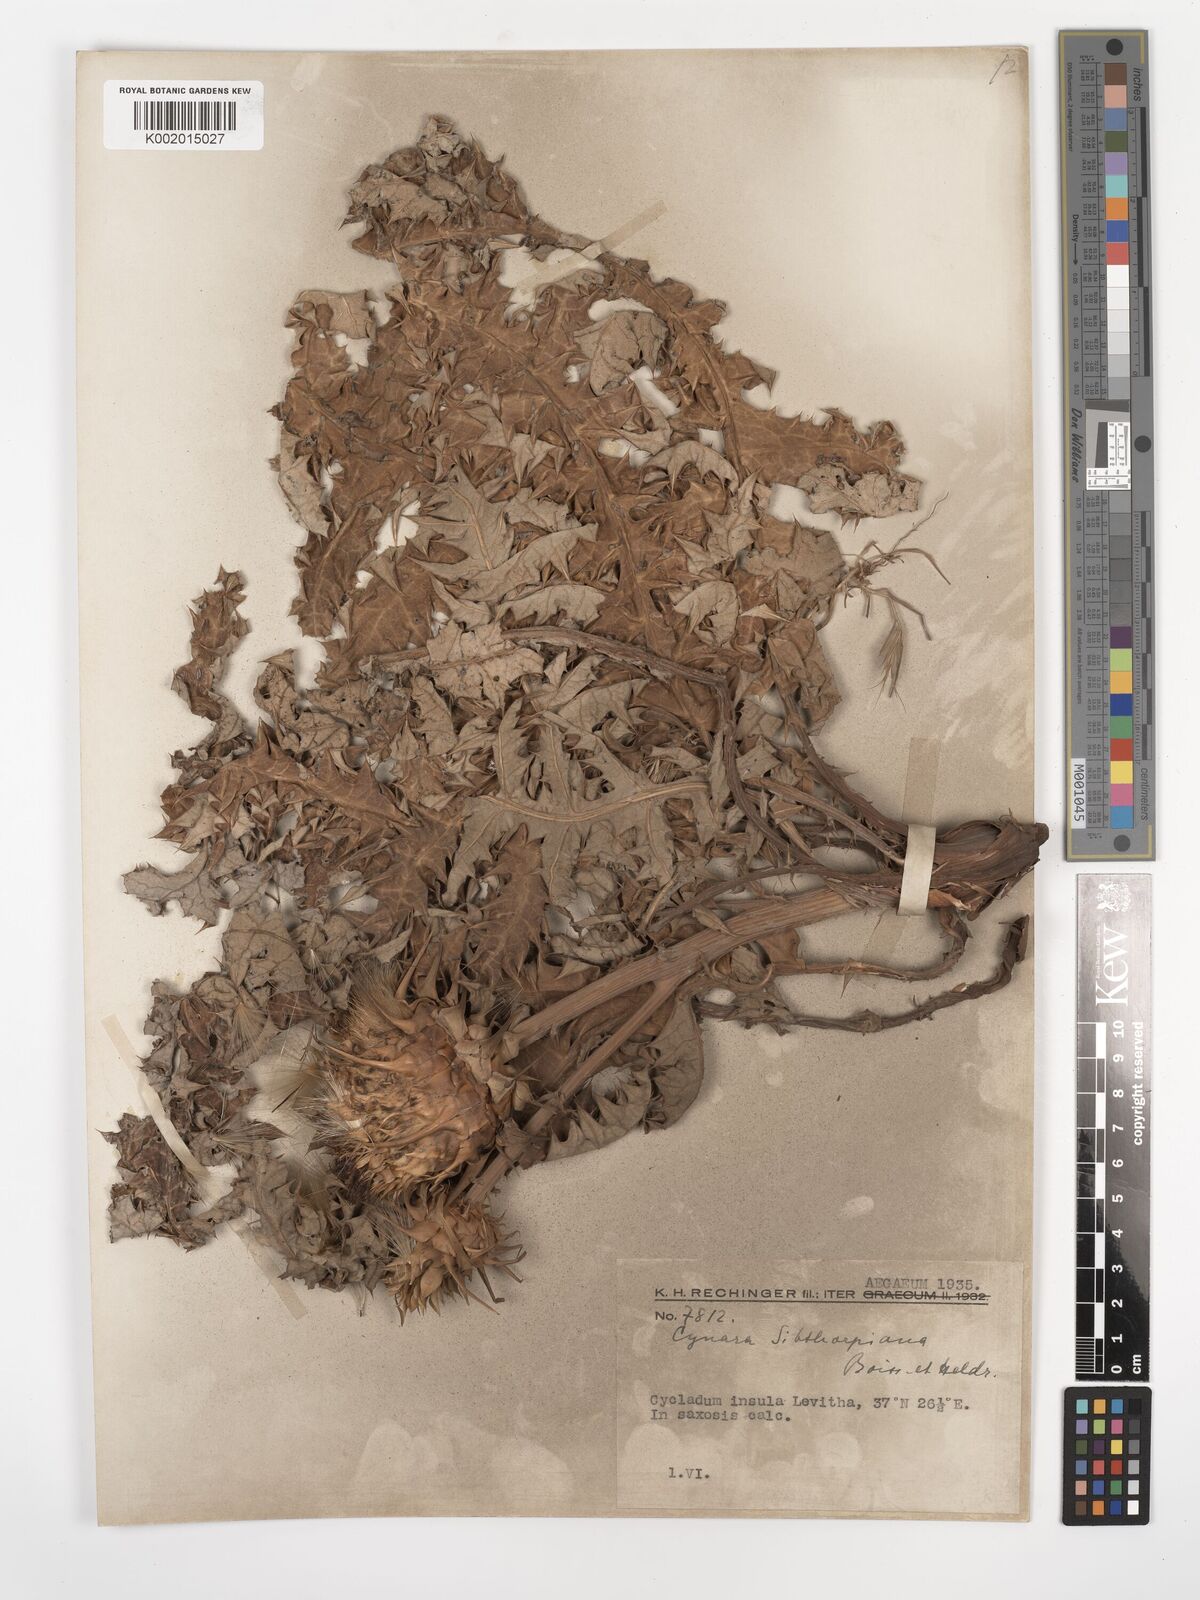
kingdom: Plantae
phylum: Tracheophyta
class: Magnoliopsida
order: Asterales
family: Asteraceae
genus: Cynara
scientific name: Cynara cornigera
